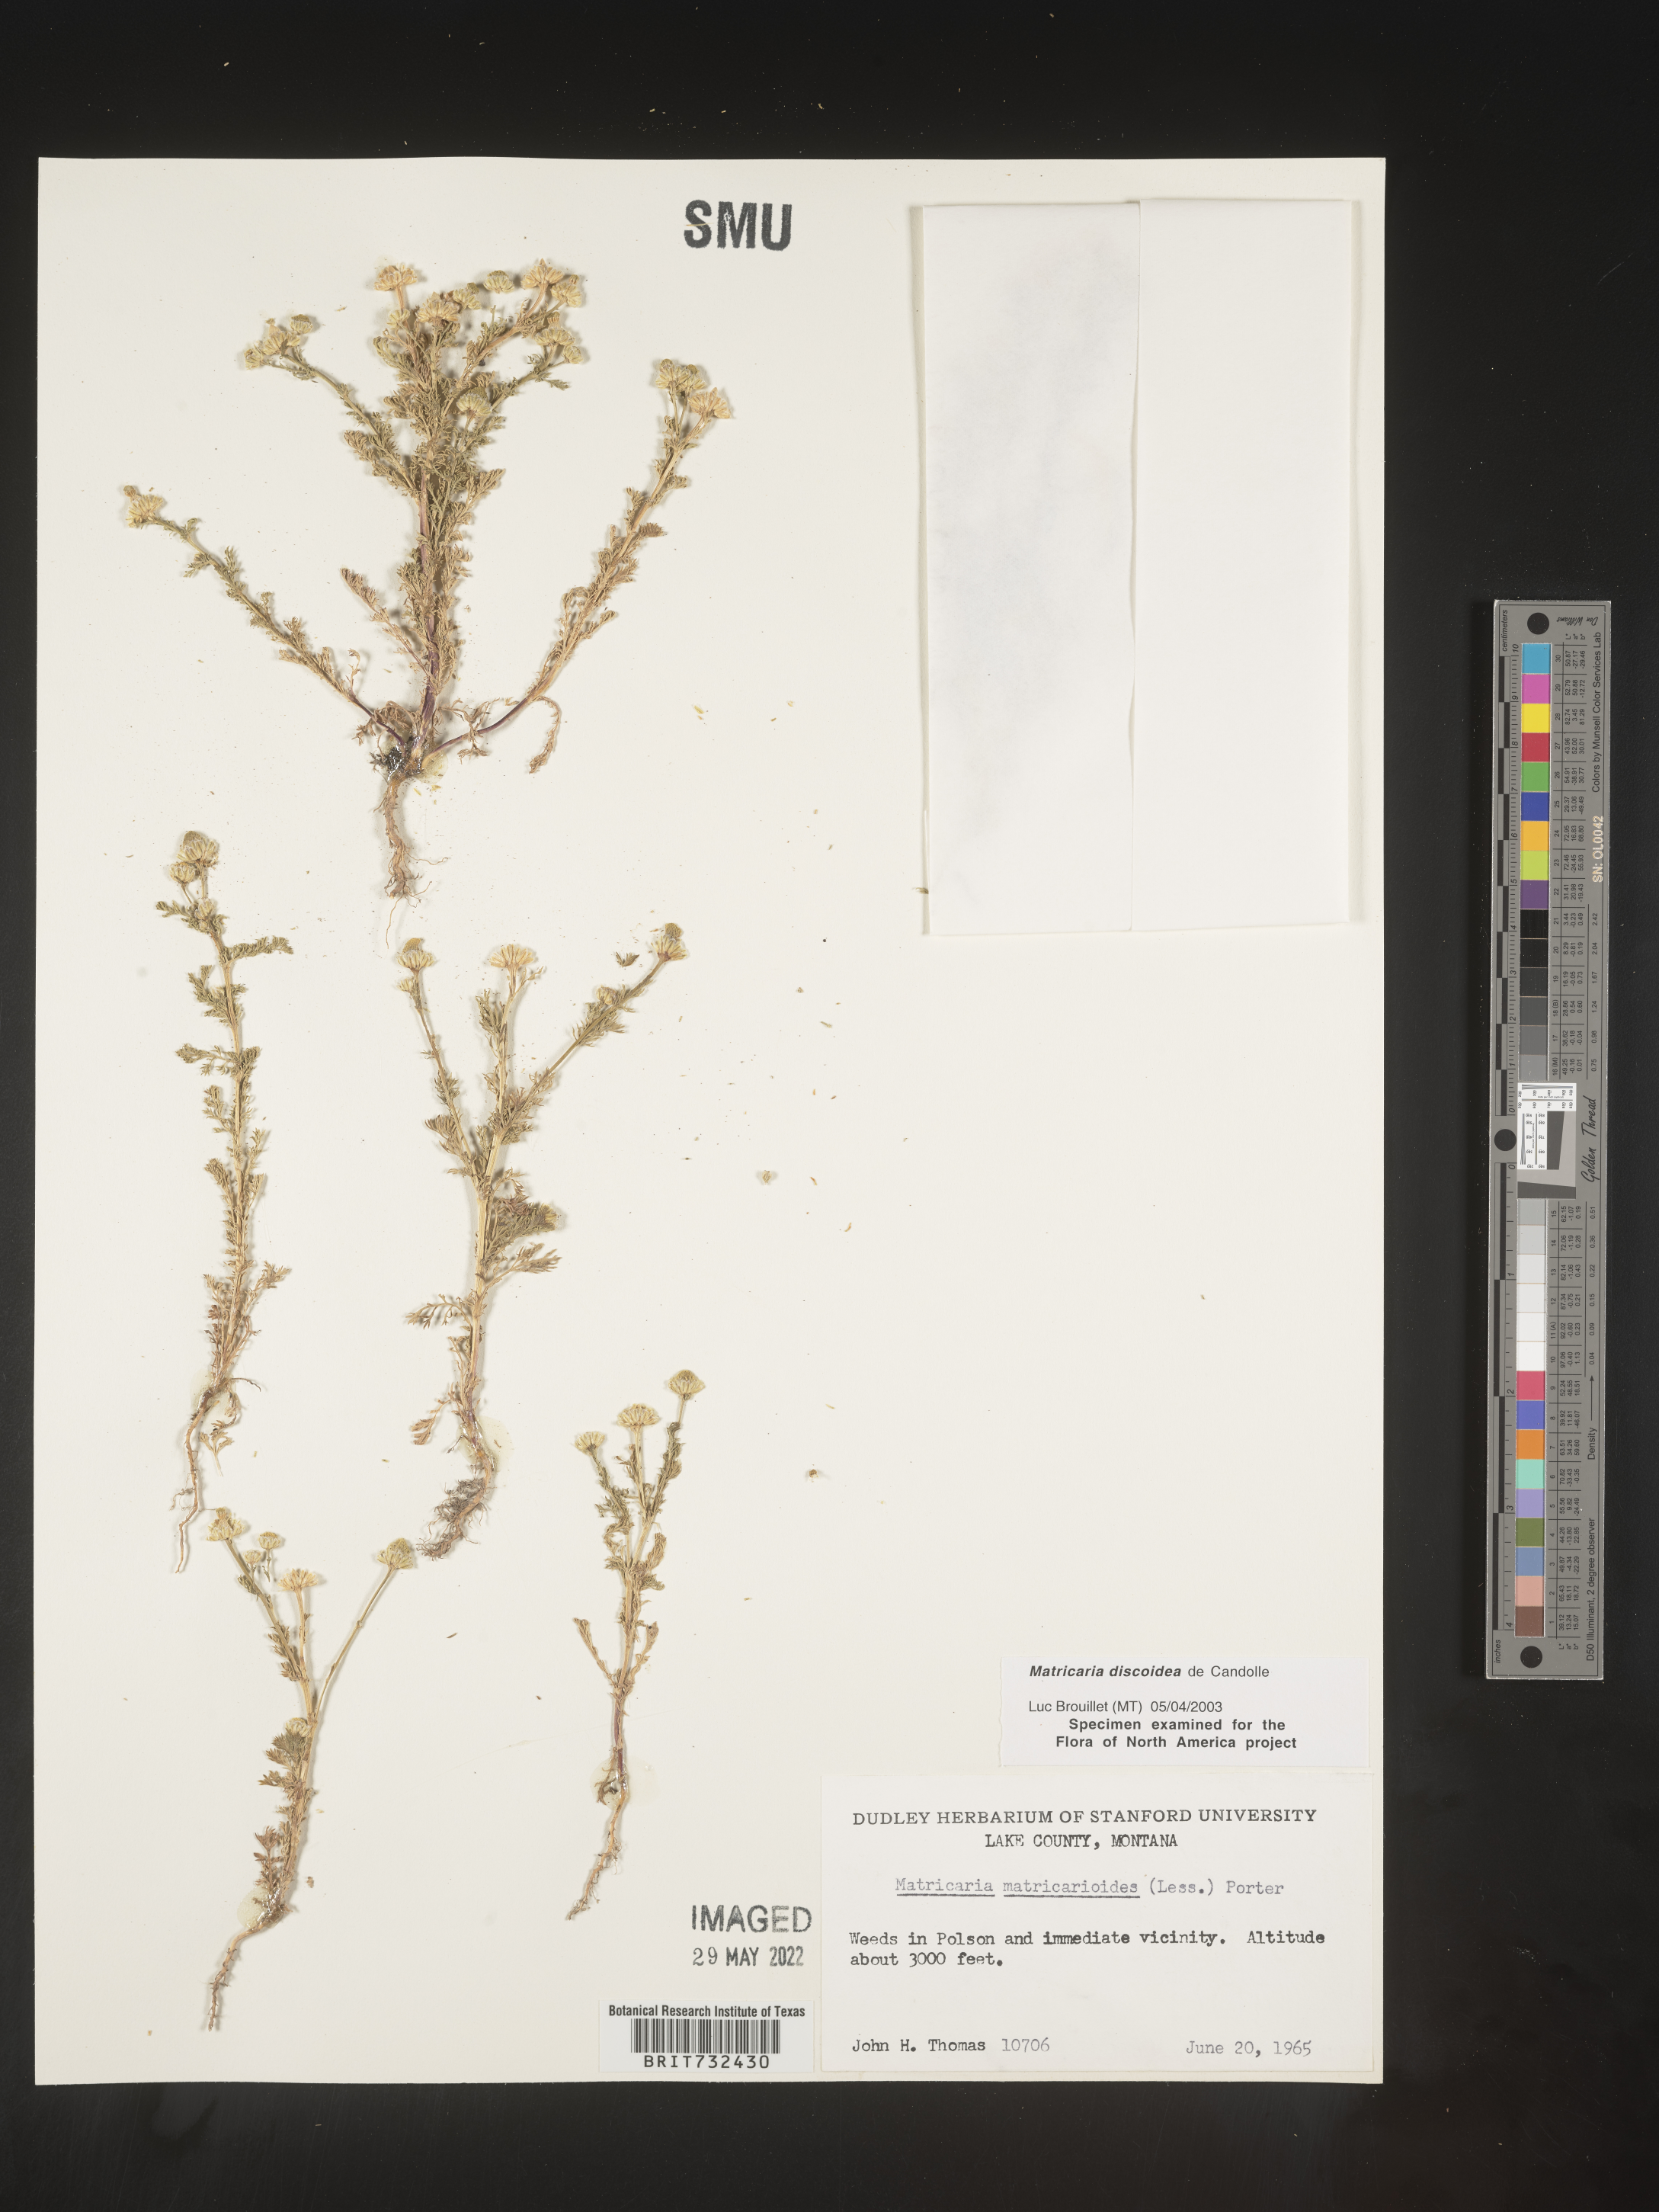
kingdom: Plantae
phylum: Tracheophyta
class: Magnoliopsida
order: Asterales
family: Asteraceae
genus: Matricaria
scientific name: Matricaria discoidea
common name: Disc mayweed
